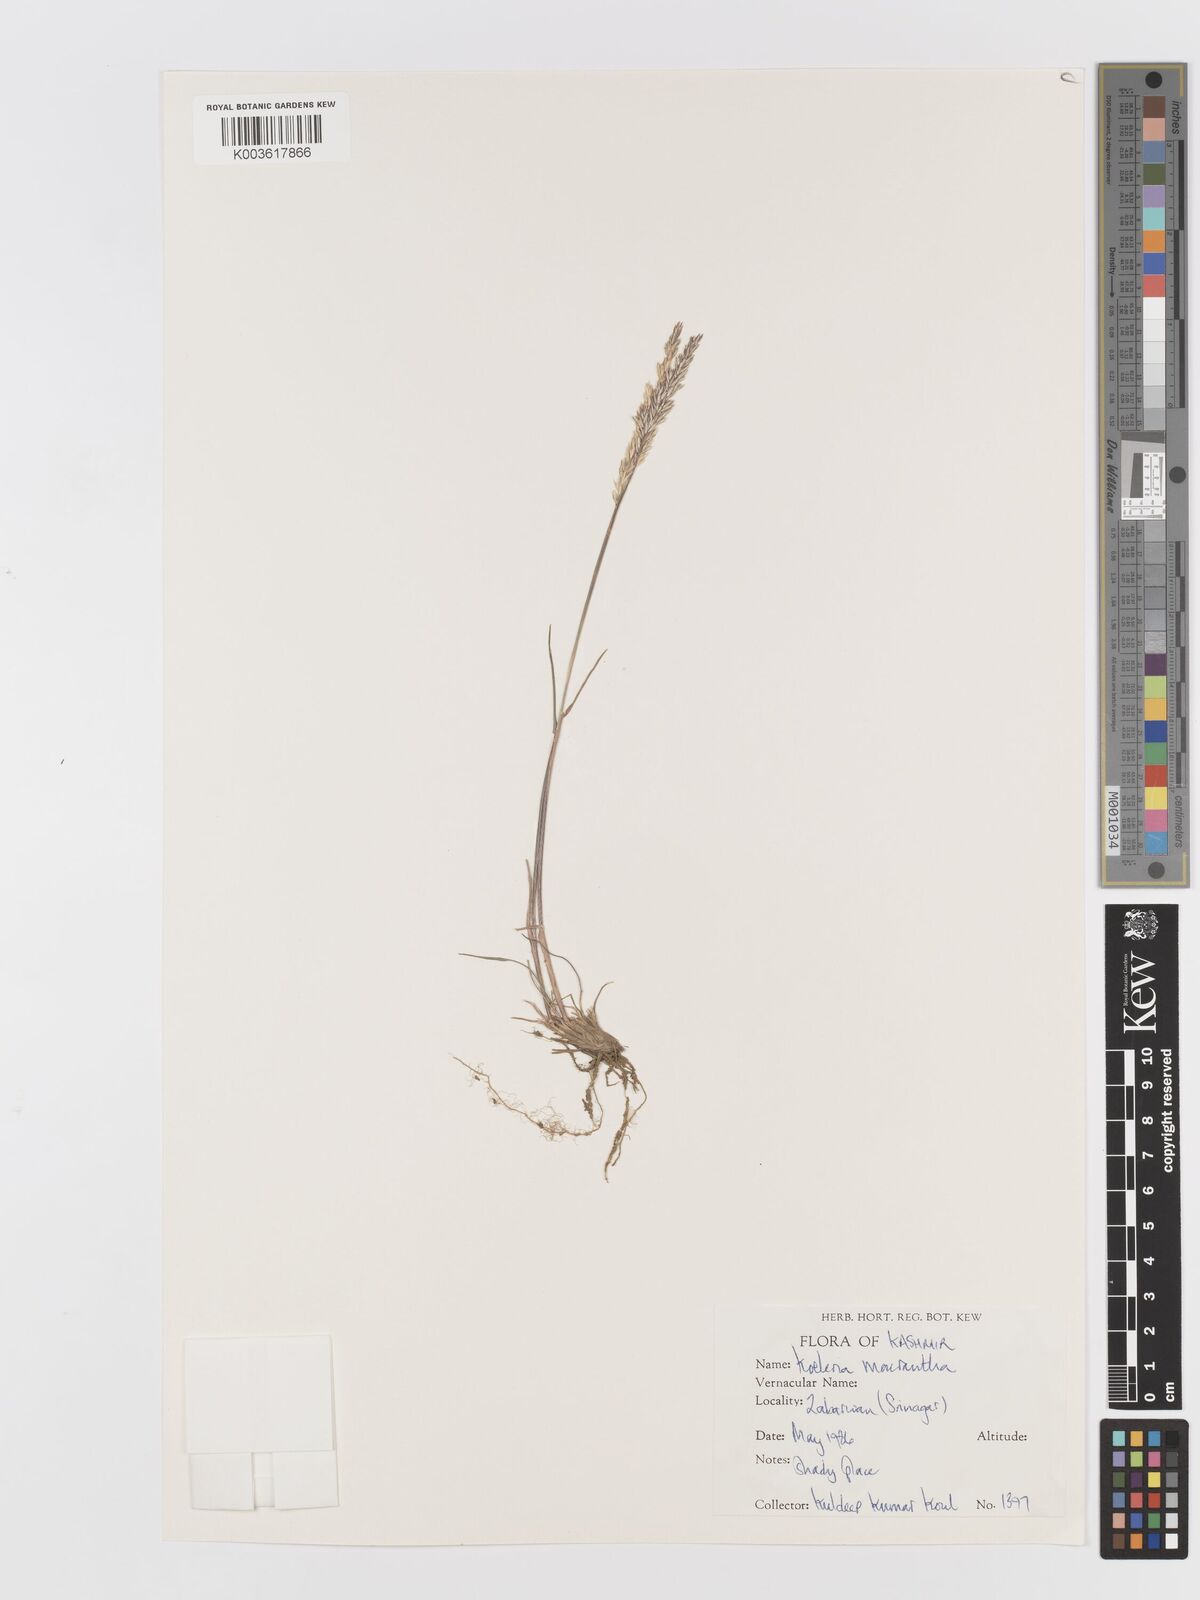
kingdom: Plantae
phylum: Tracheophyta
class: Liliopsida
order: Poales
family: Poaceae
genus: Koeleria
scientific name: Koeleria
